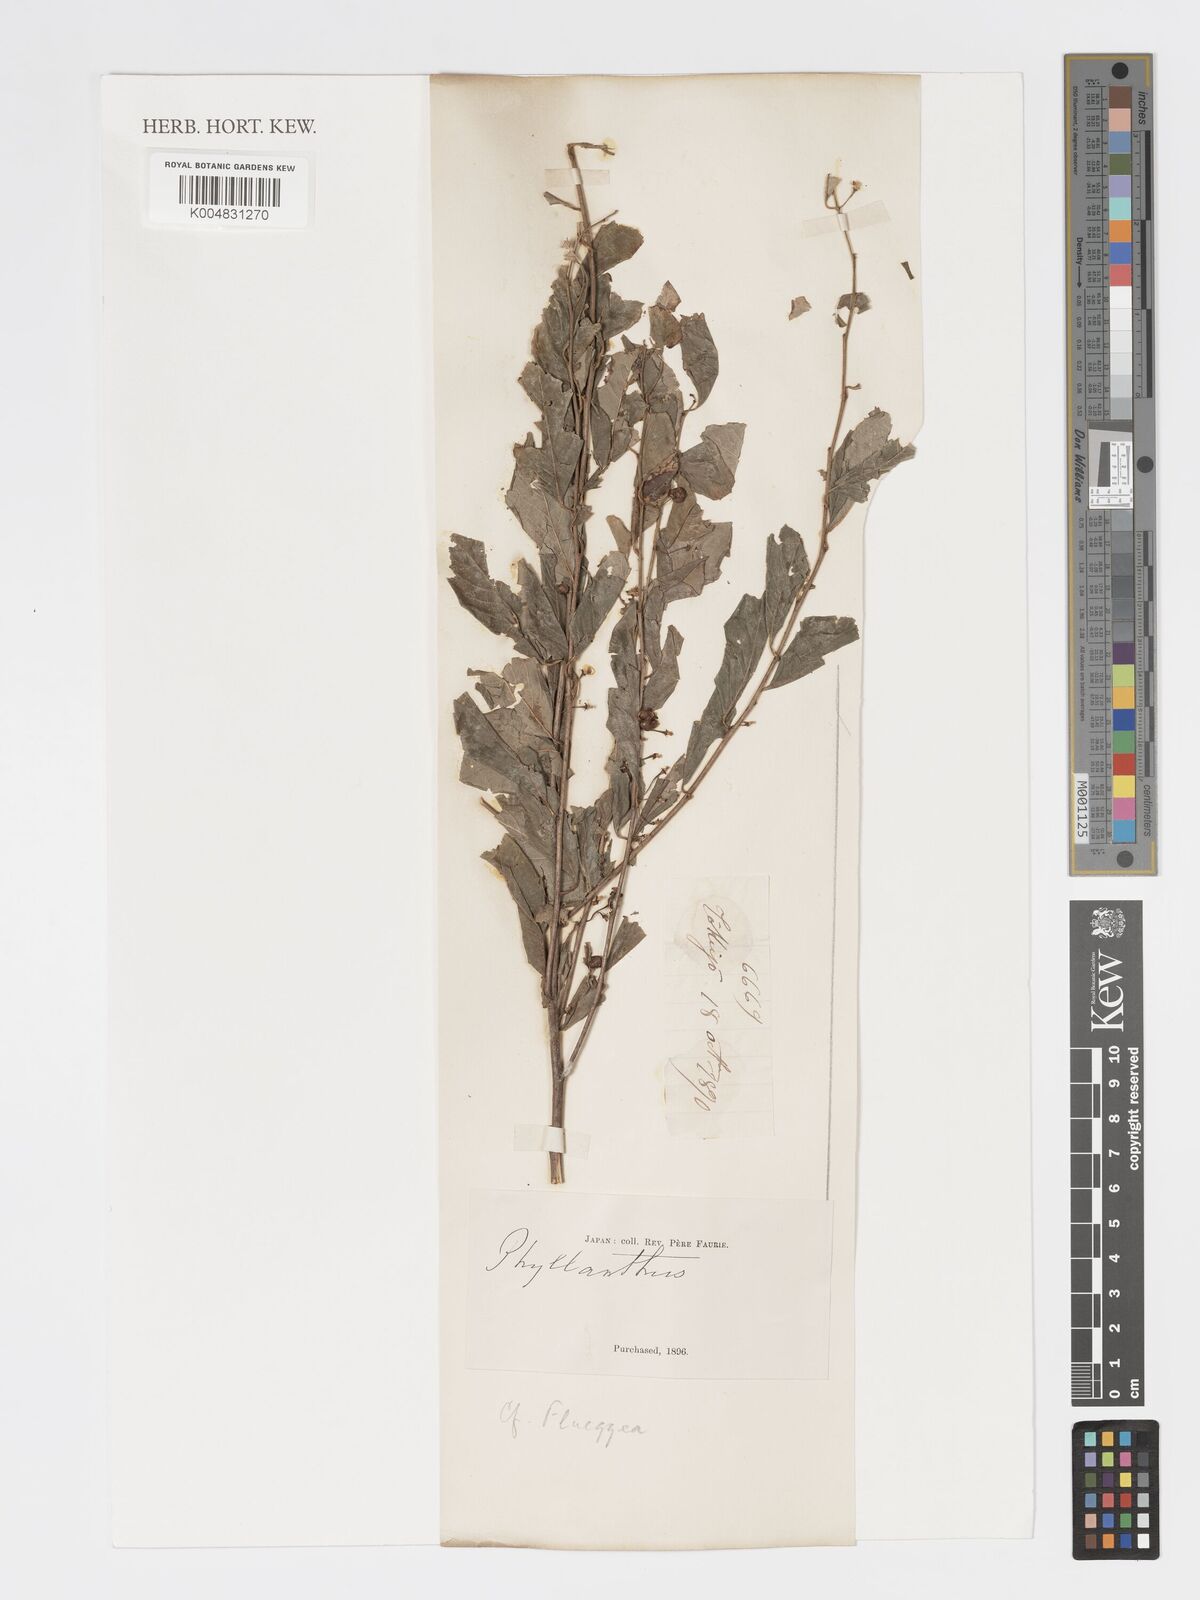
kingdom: Plantae
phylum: Tracheophyta
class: Magnoliopsida
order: Malpighiales
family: Phyllanthaceae
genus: Phyllanthus
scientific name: Phyllanthus
